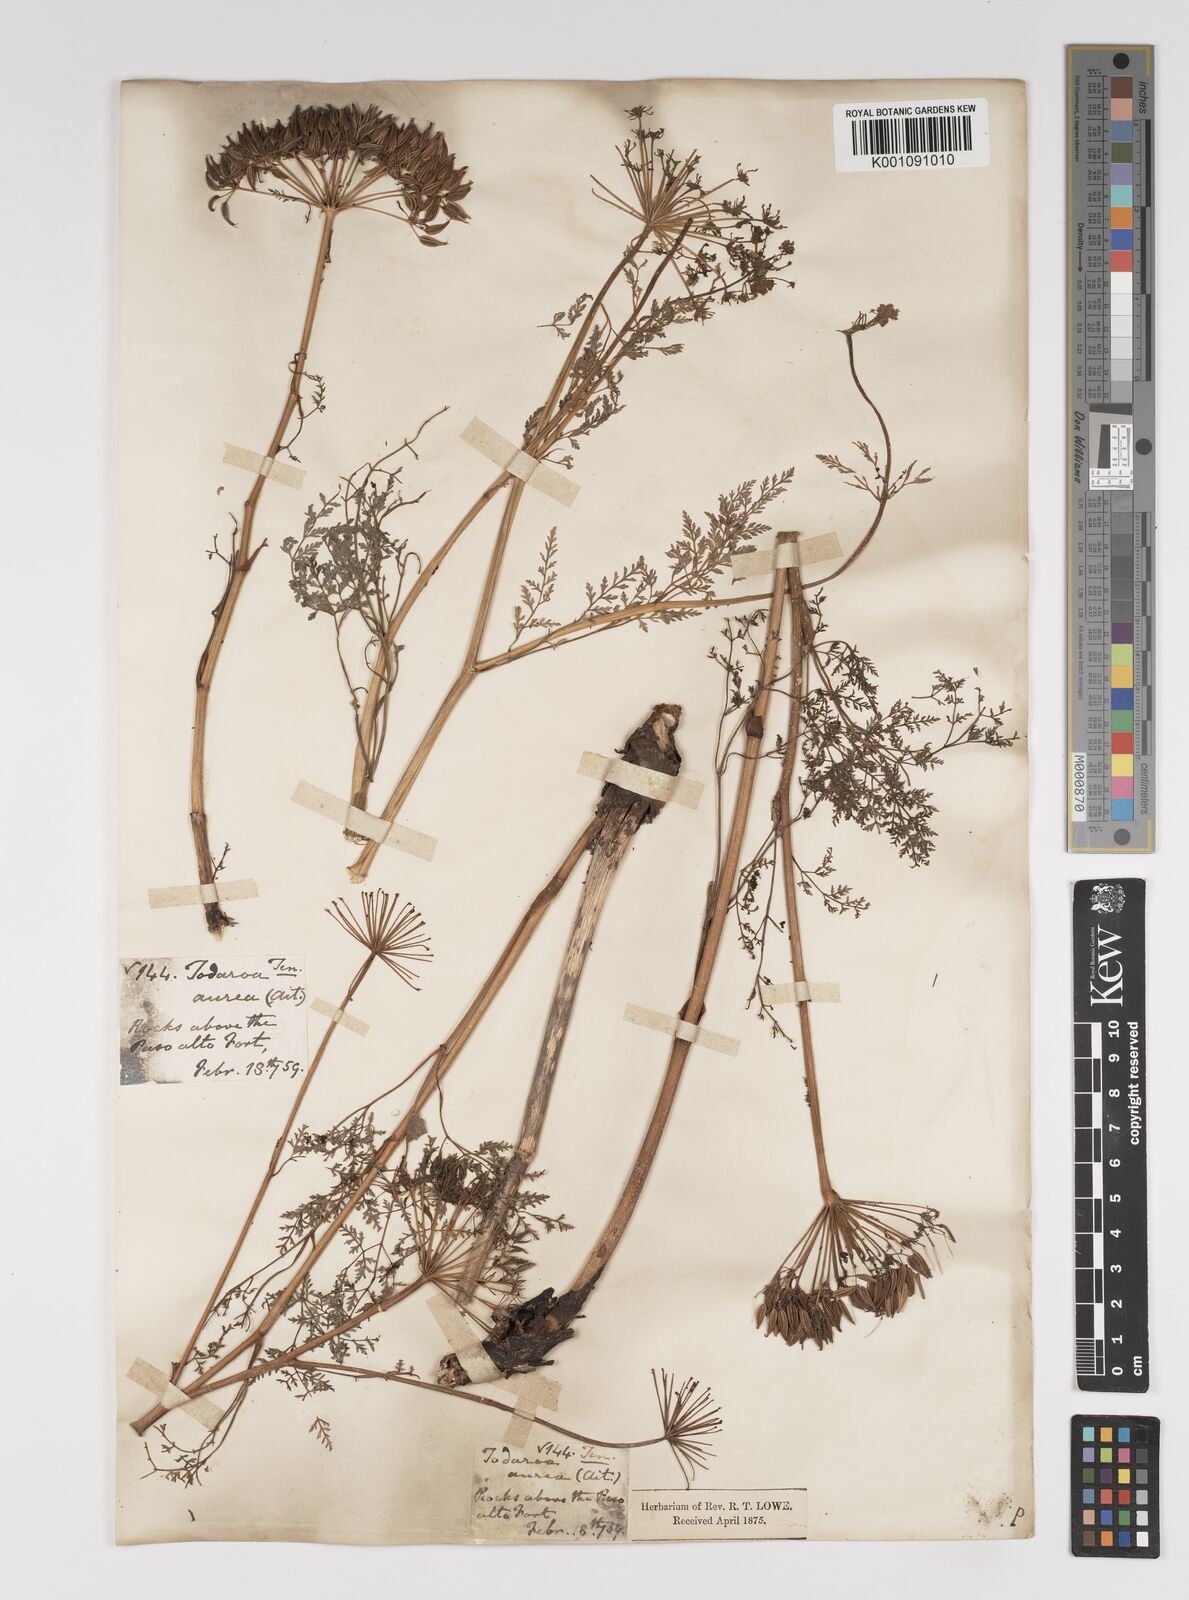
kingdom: Plantae
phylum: Tracheophyta
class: Magnoliopsida
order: Apiales
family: Apiaceae
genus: Todaroa
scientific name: Todaroa aurea
